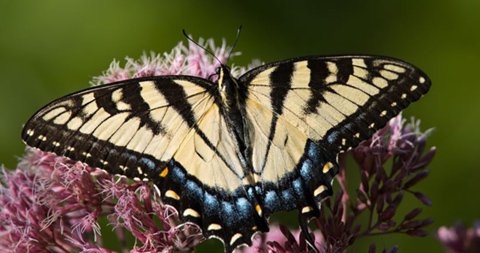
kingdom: Animalia
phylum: Arthropoda
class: Insecta
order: Lepidoptera
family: Papilionidae
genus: Pterourus
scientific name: Pterourus glaucus
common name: Eastern Tiger Swallowtail
